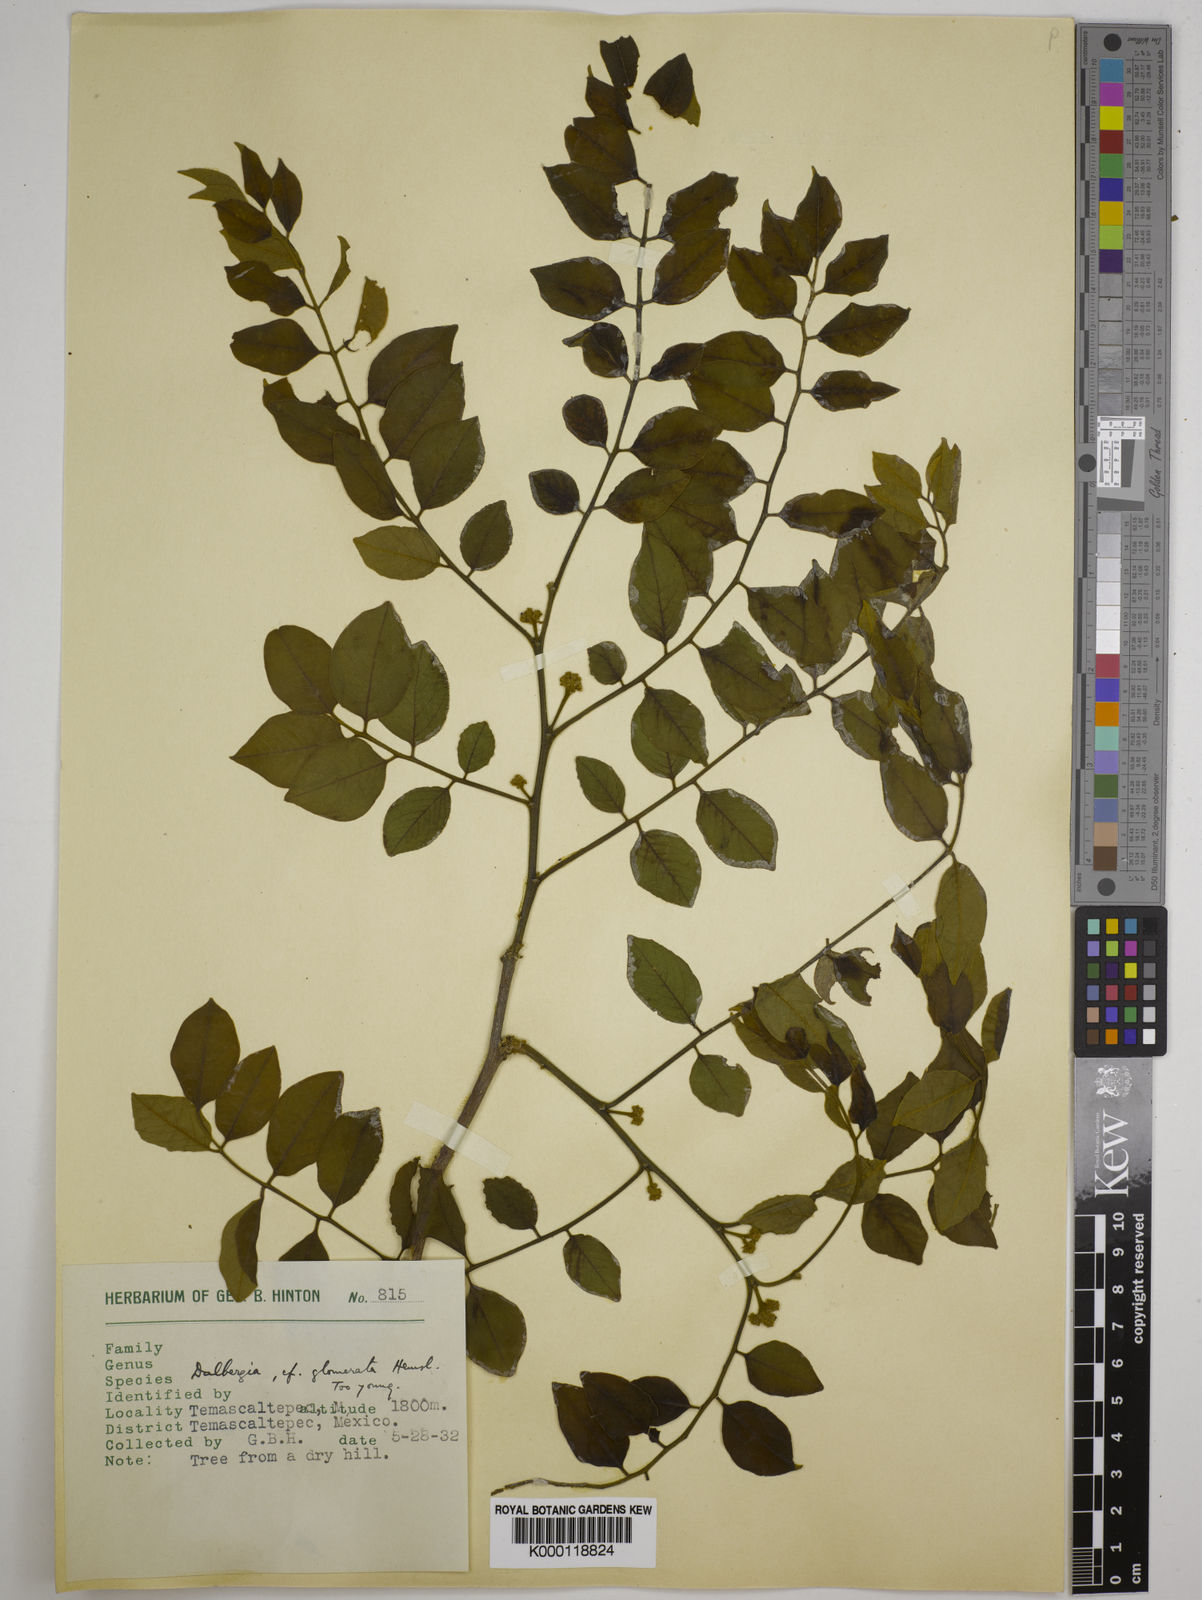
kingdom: Plantae
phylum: Tracheophyta
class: Magnoliopsida
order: Fabales
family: Fabaceae
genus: Dalbergia
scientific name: Dalbergia glomerata
